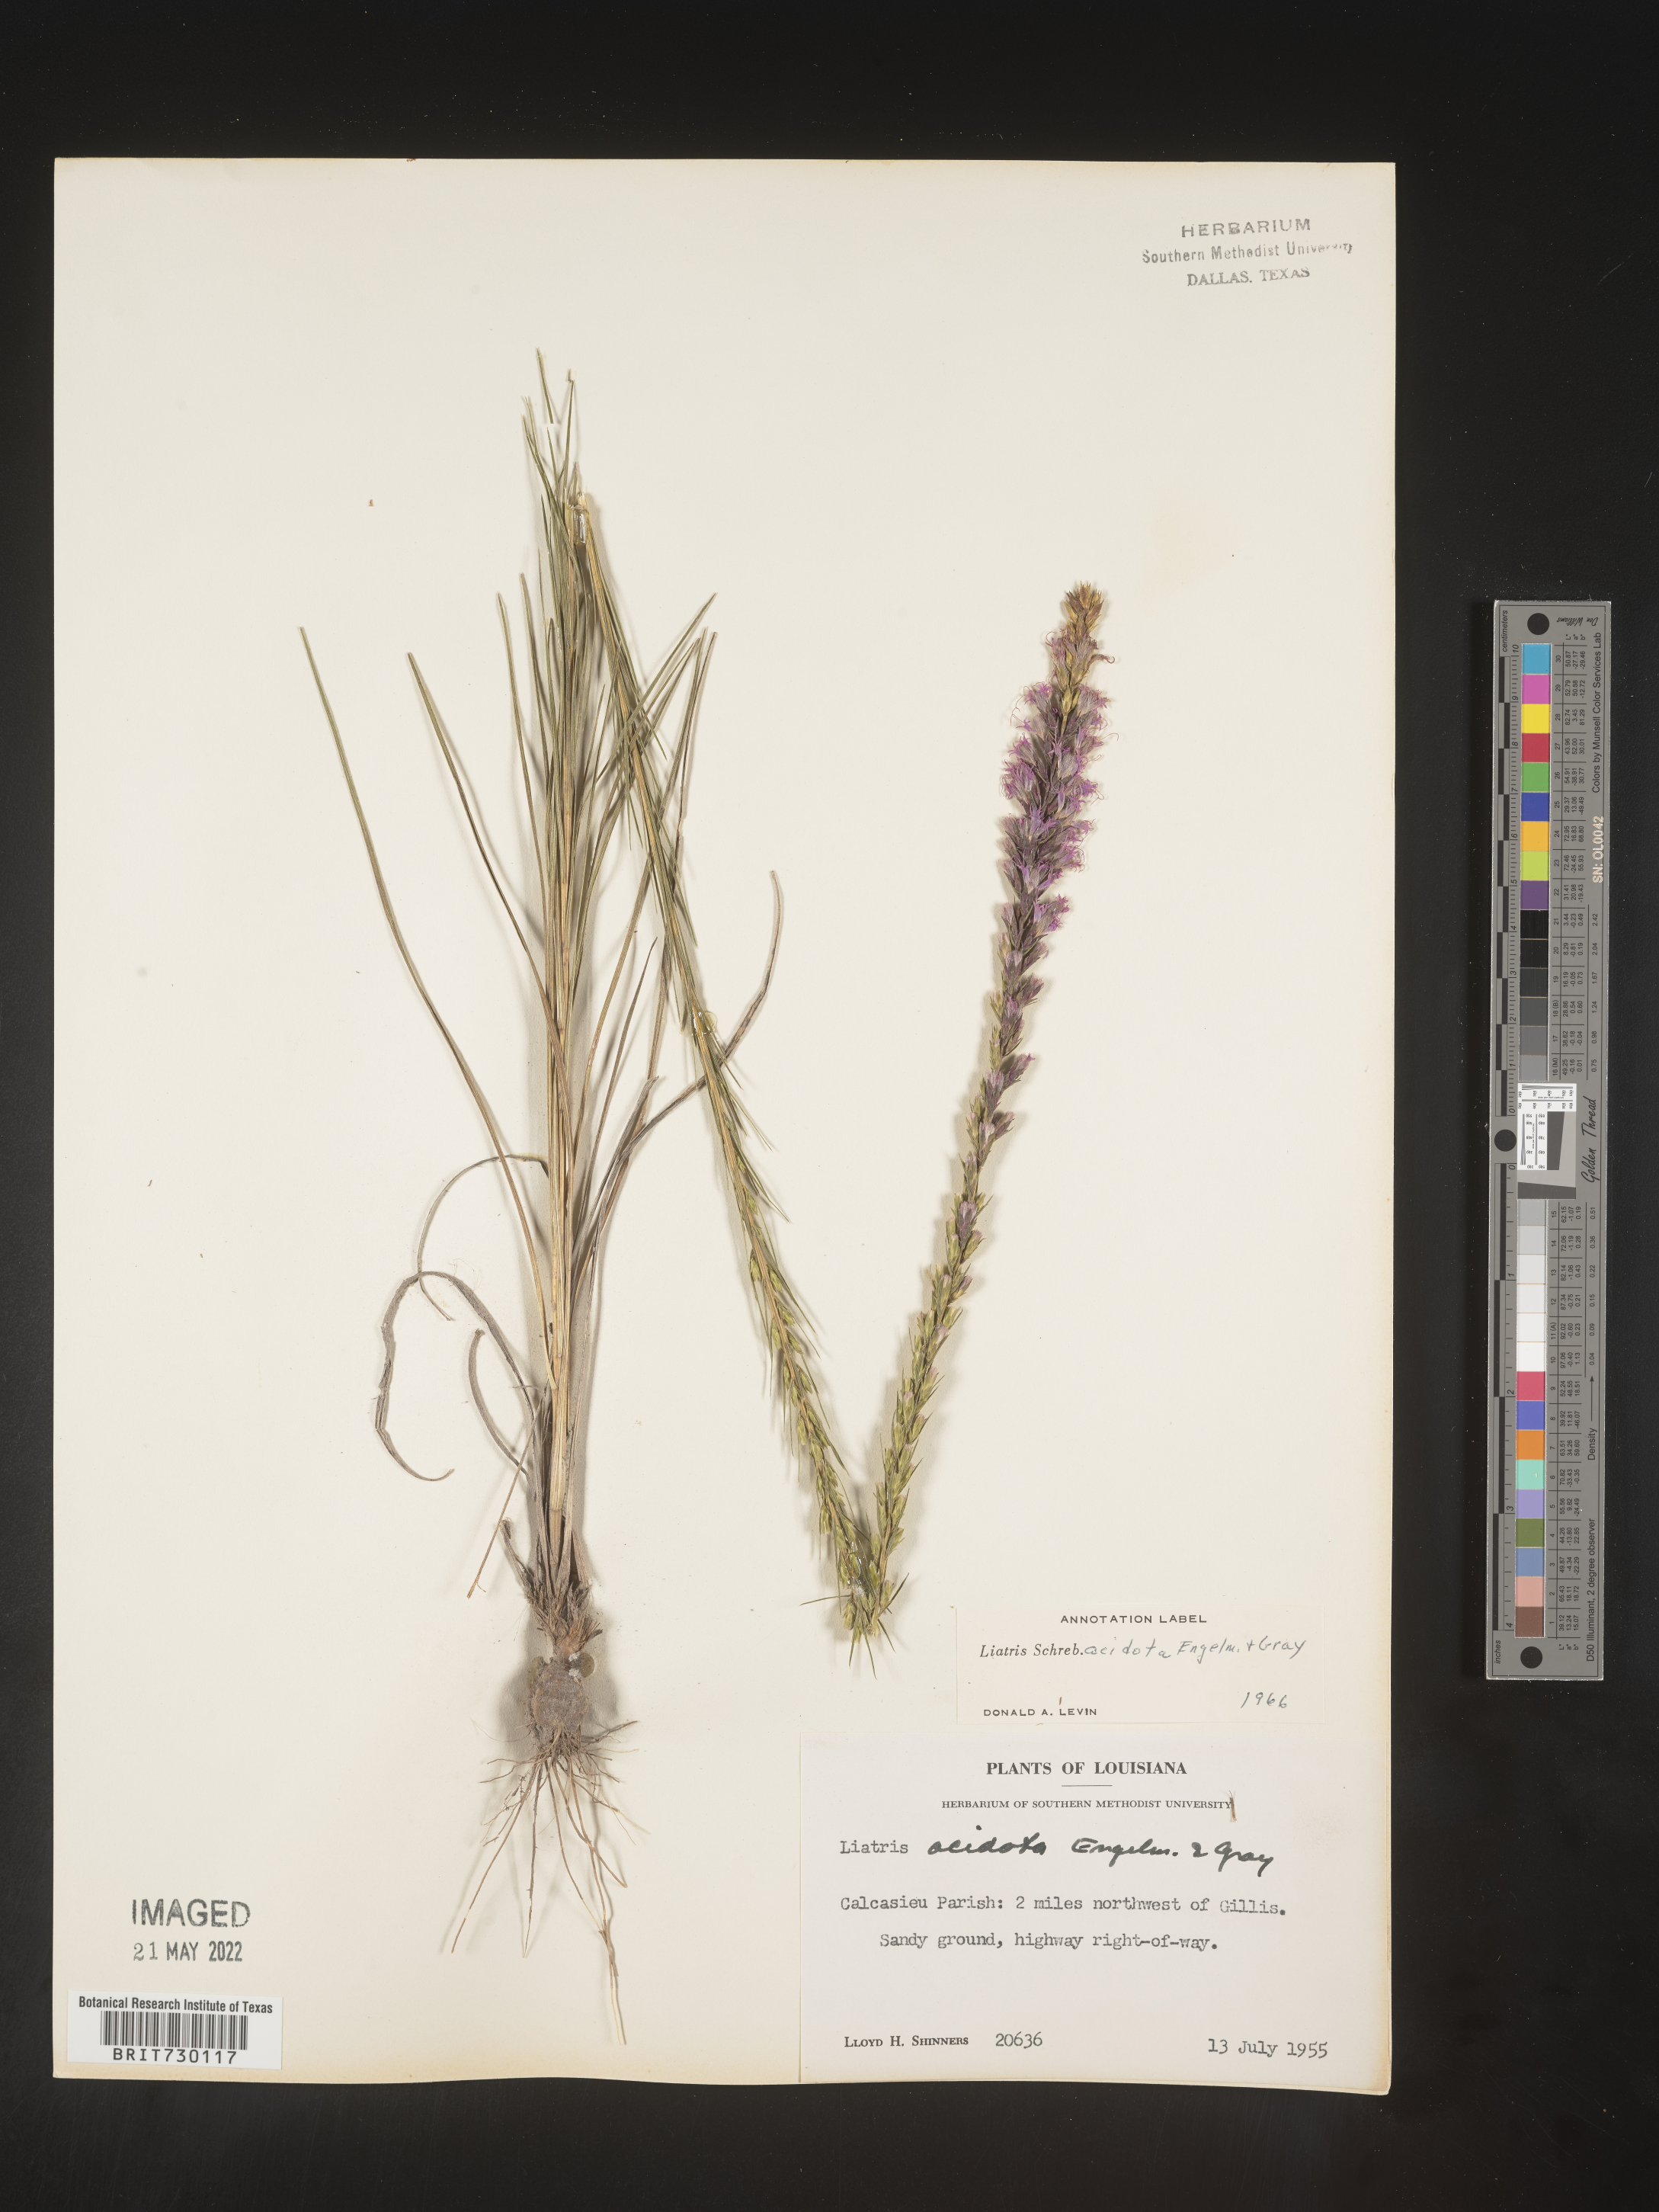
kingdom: Plantae
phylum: Tracheophyta
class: Magnoliopsida
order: Asterales
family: Asteraceae
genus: Liatris
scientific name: Liatris acidota
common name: Gulf coast gayfeather
